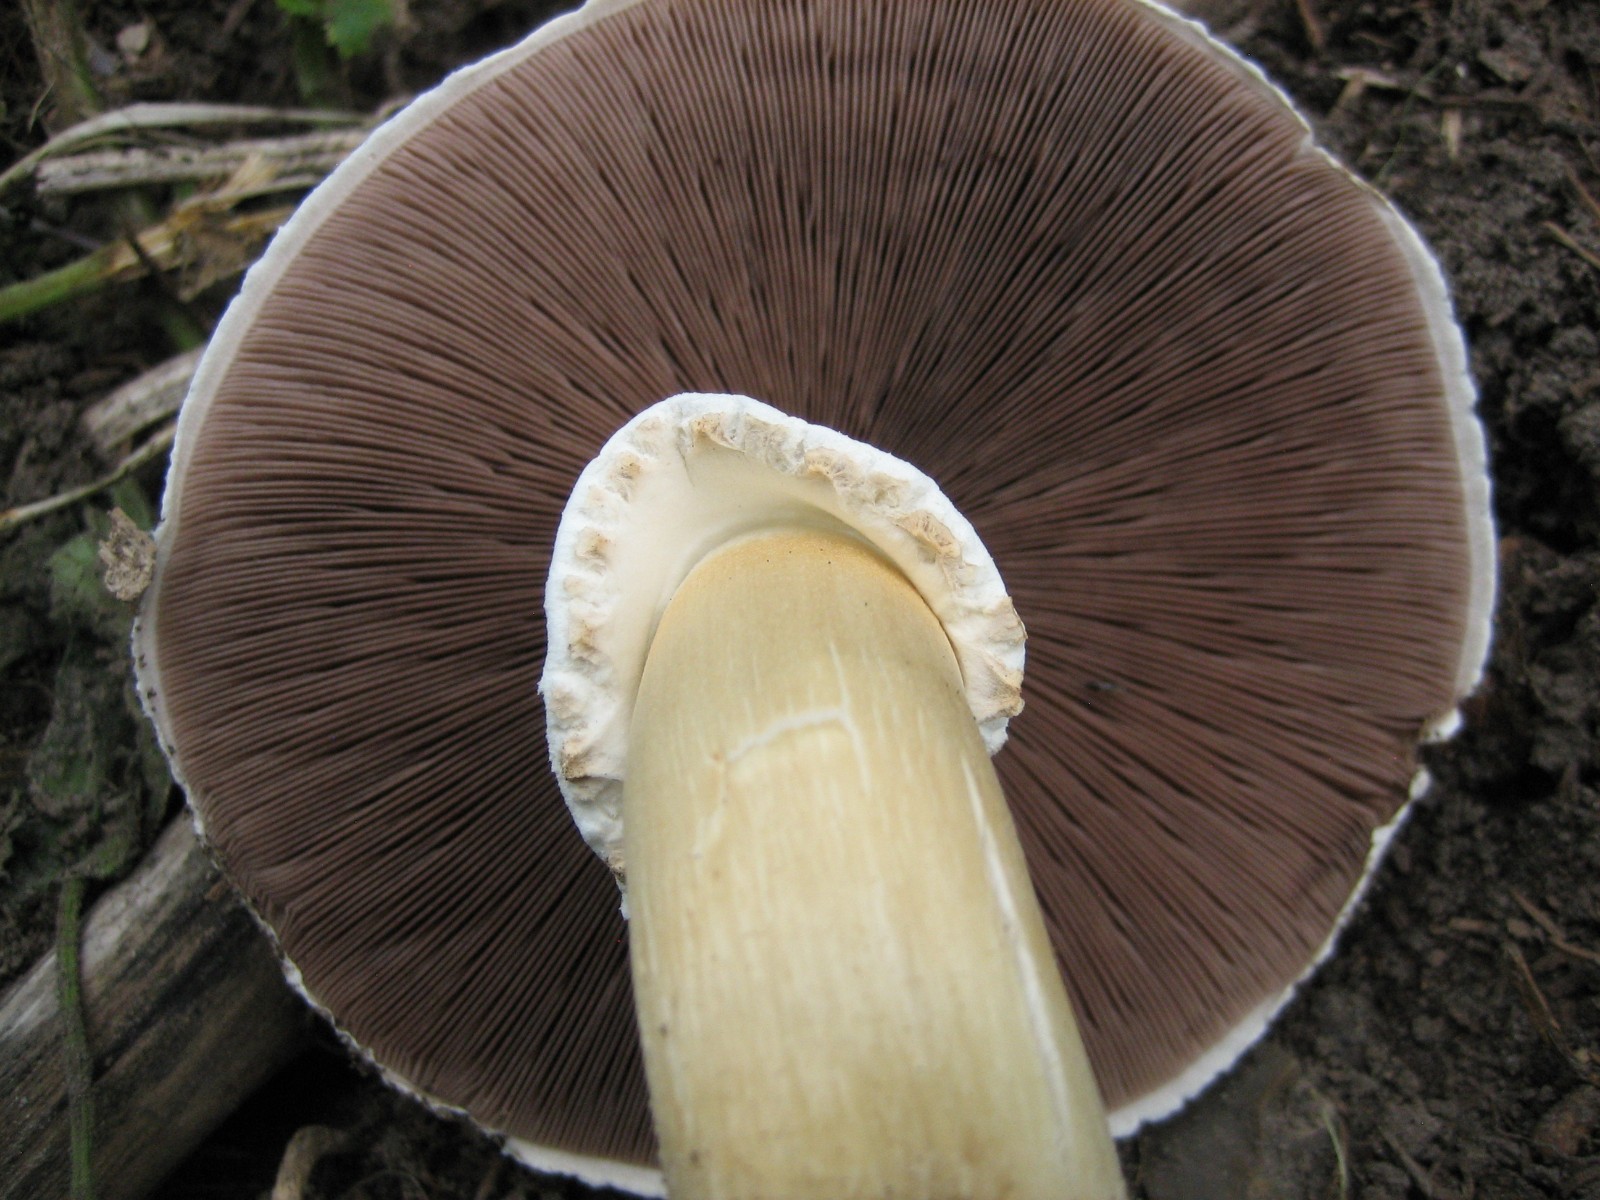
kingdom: Fungi
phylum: Basidiomycota
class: Agaricomycetes
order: Agaricales
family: Agaricaceae
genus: Agaricus
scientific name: Agaricus
